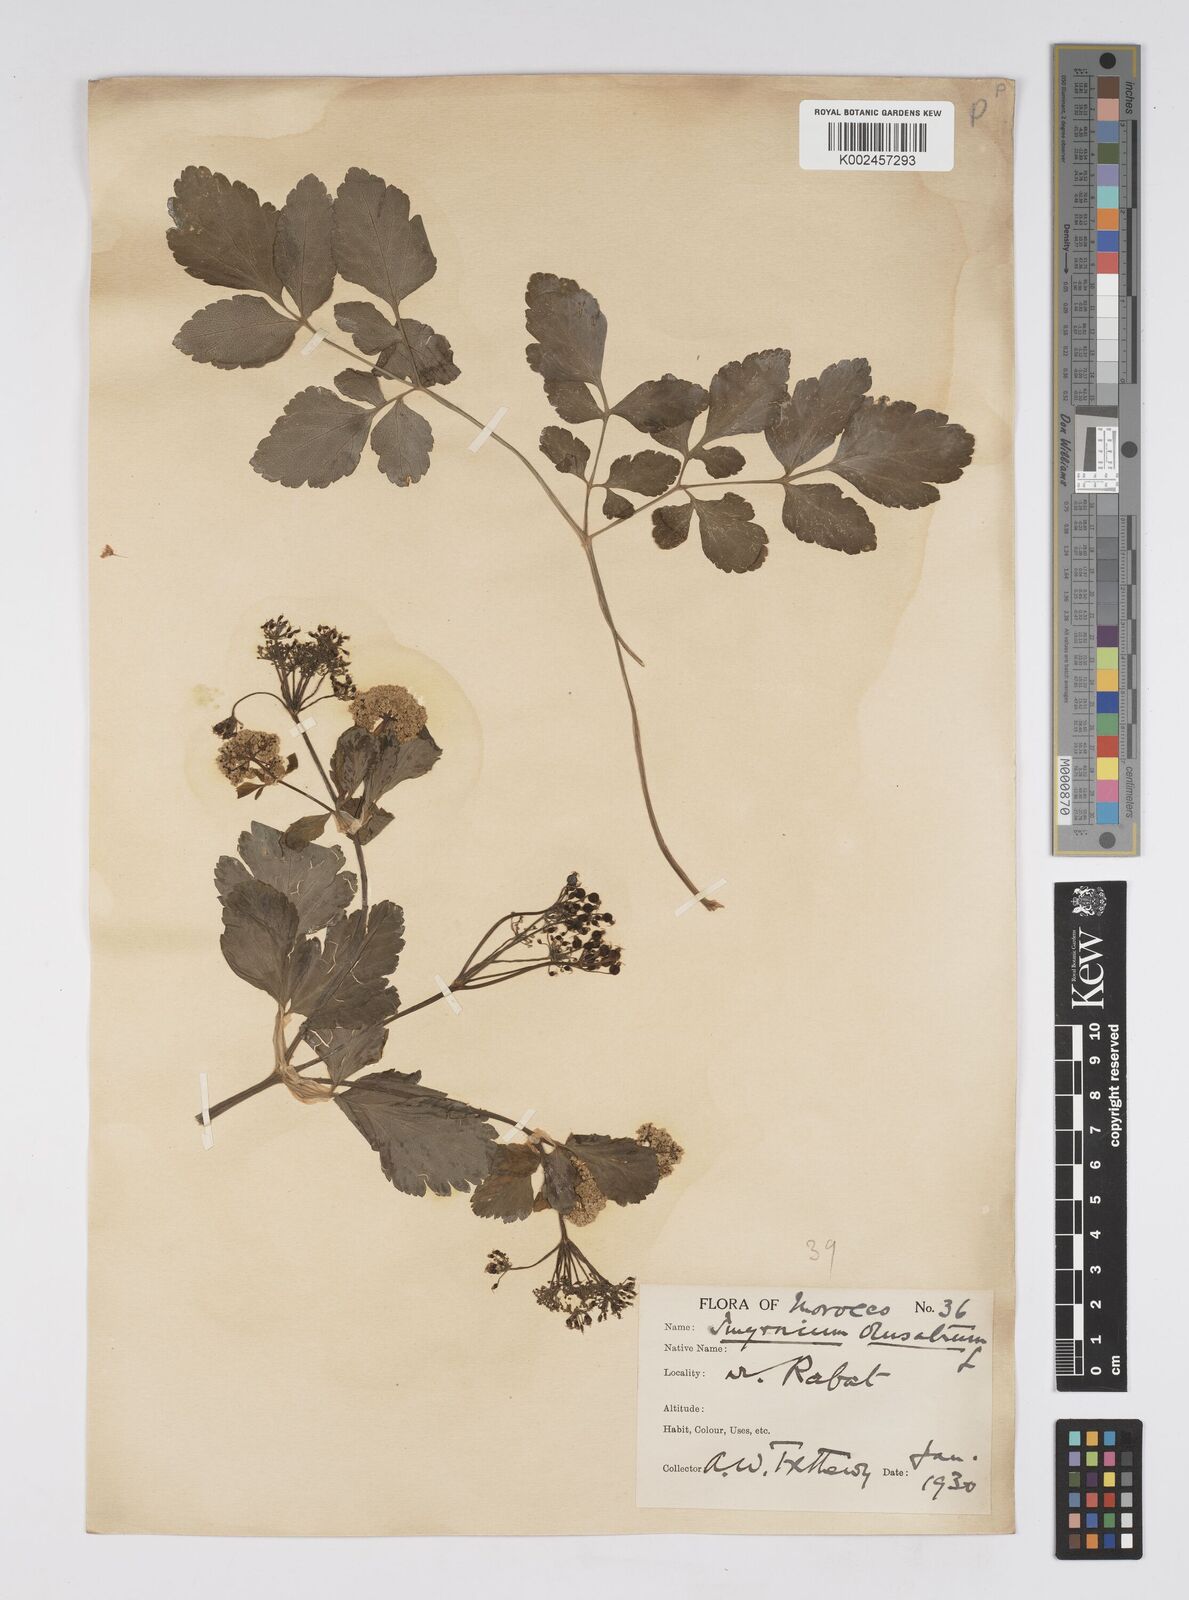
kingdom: Plantae
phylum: Tracheophyta
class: Magnoliopsida
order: Apiales
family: Apiaceae
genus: Smyrnium
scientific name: Smyrnium olusatrum
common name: Alexanders
